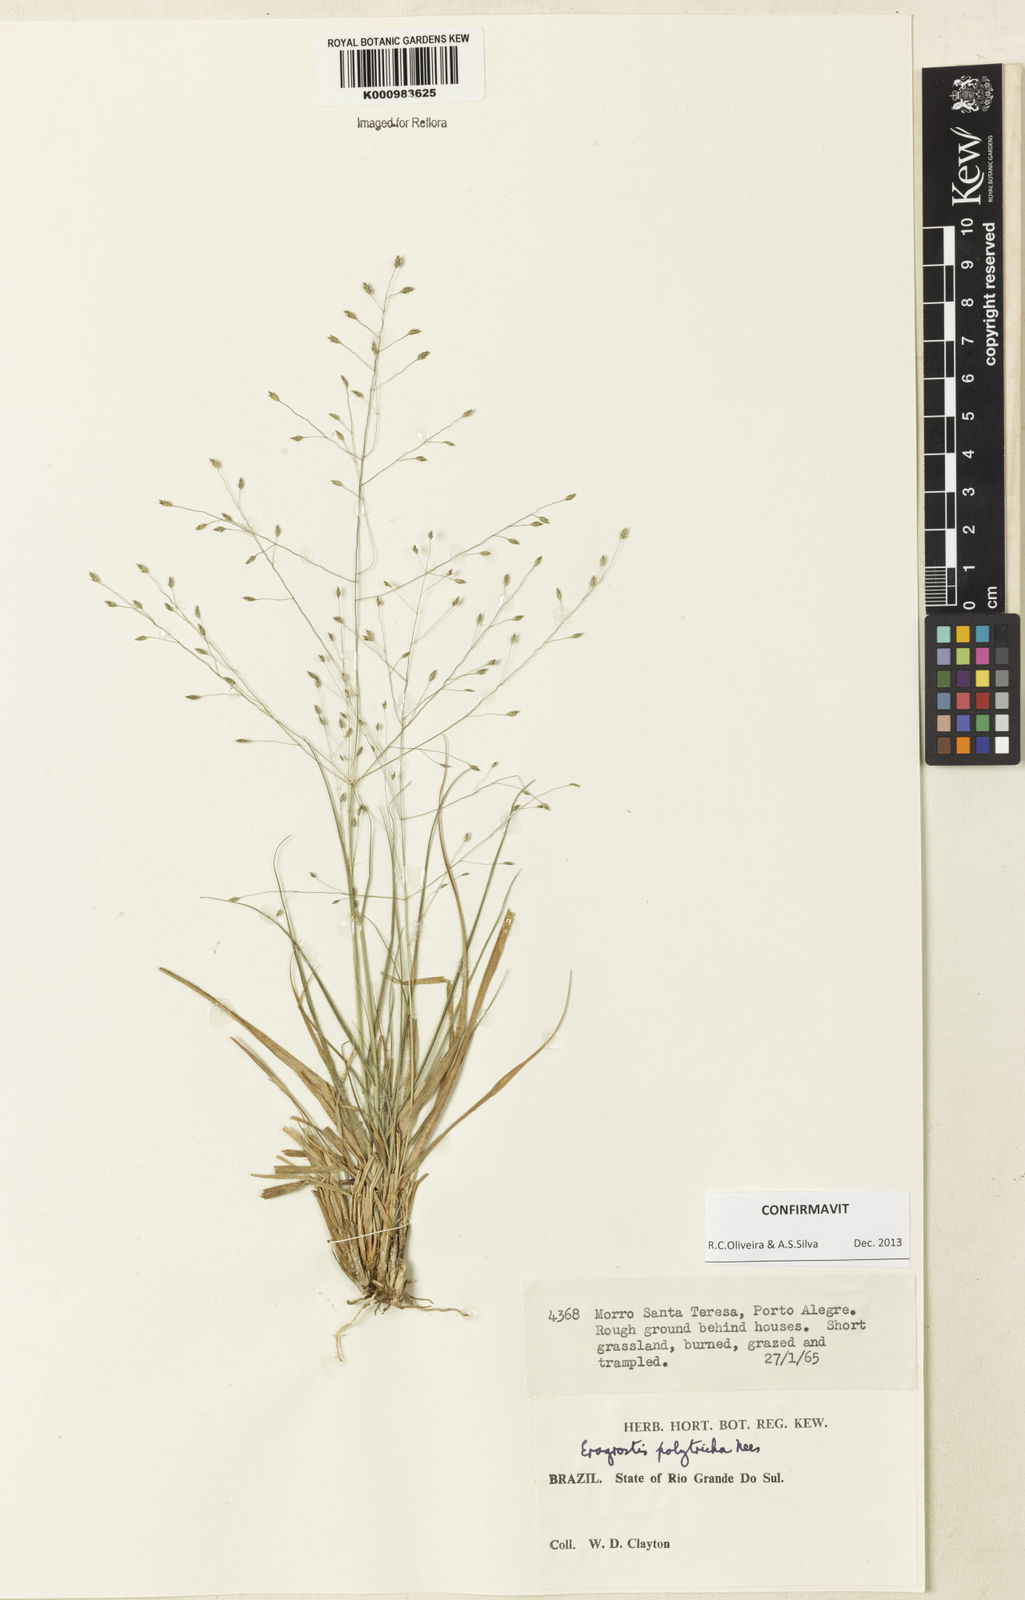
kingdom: Plantae
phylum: Tracheophyta
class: Liliopsida
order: Poales
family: Poaceae
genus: Eragrostis
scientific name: Eragrostis polytricha
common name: Hairy-sheath love grass
